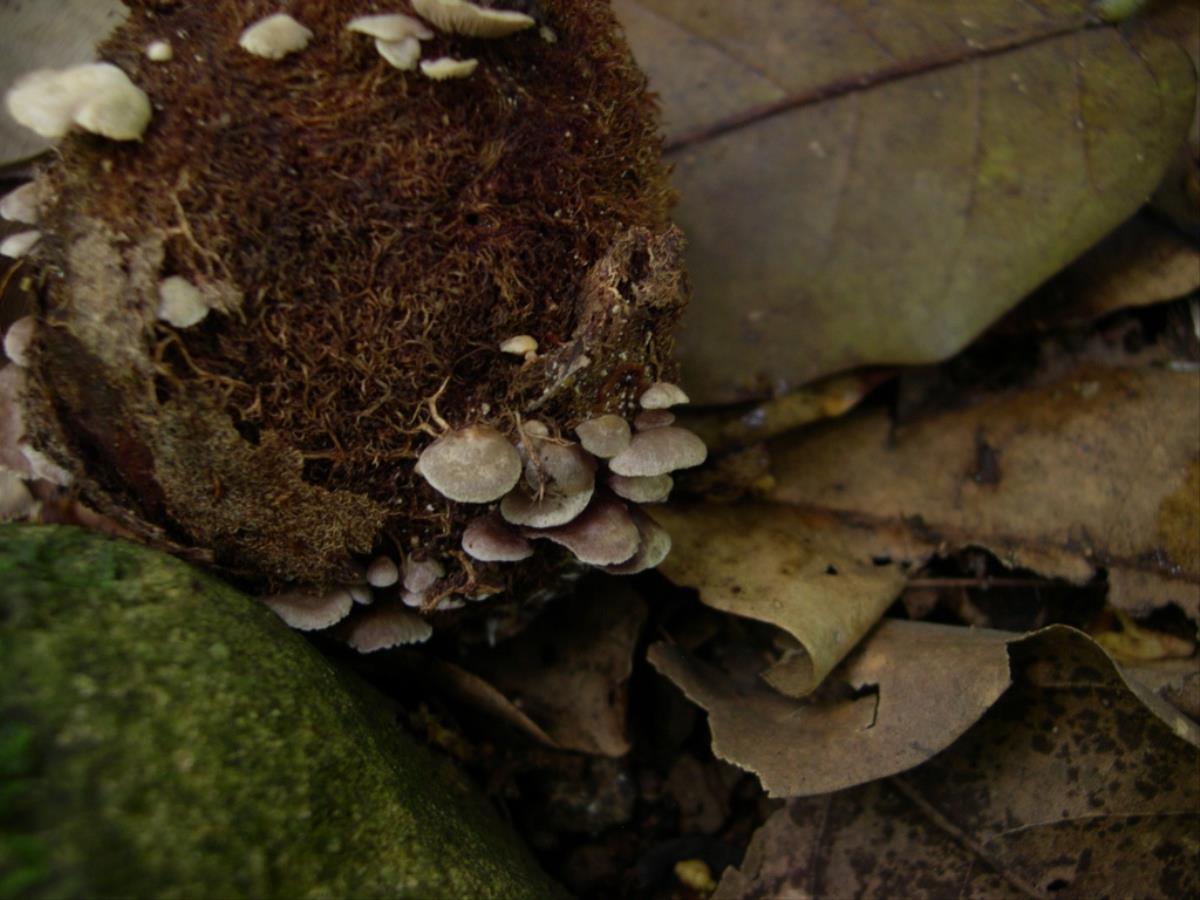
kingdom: Fungi
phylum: Basidiomycota
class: Agaricomycetes
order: Agaricales
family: Strophariaceae
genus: Melanotus
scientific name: Melanotus communis
